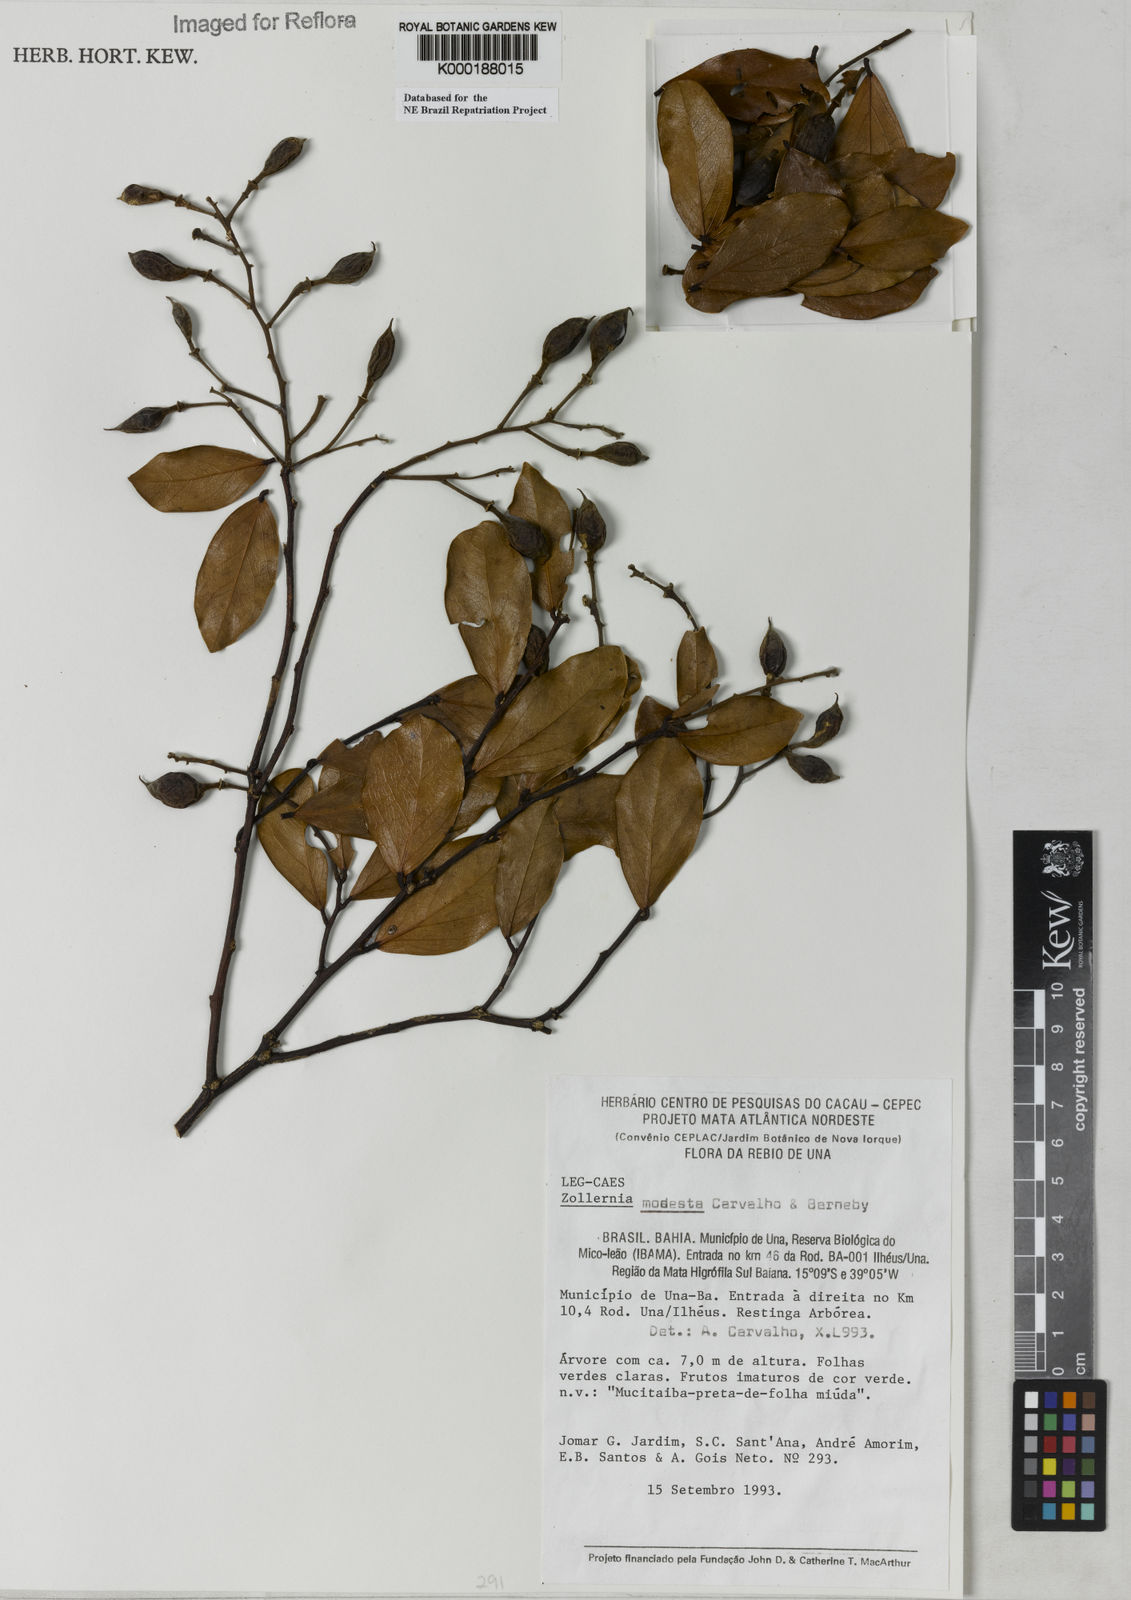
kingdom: Plantae
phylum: Tracheophyta
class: Magnoliopsida
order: Fabales
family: Fabaceae
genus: Zollernia
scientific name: Zollernia modesta
